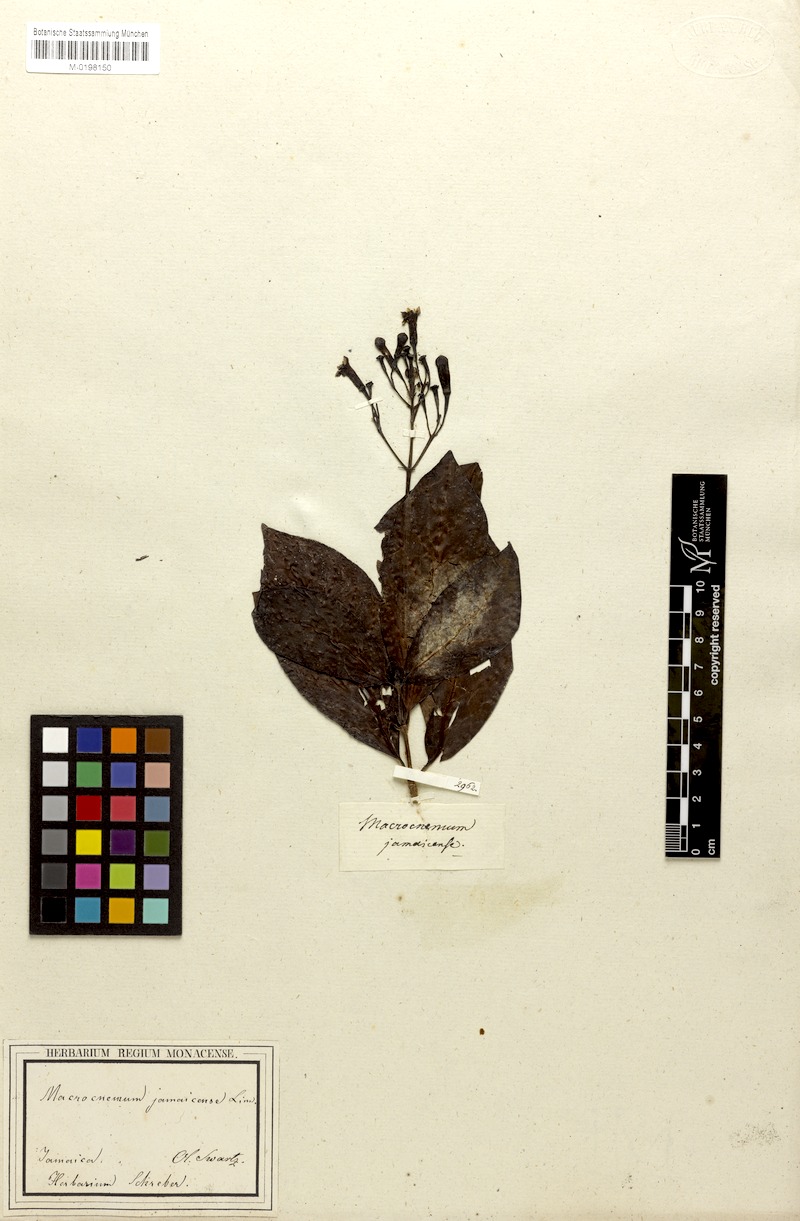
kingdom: Plantae
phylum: Tracheophyta
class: Magnoliopsida
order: Gentianales
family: Rubiaceae
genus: Macrocnemum
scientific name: Macrocnemum jamaicense
